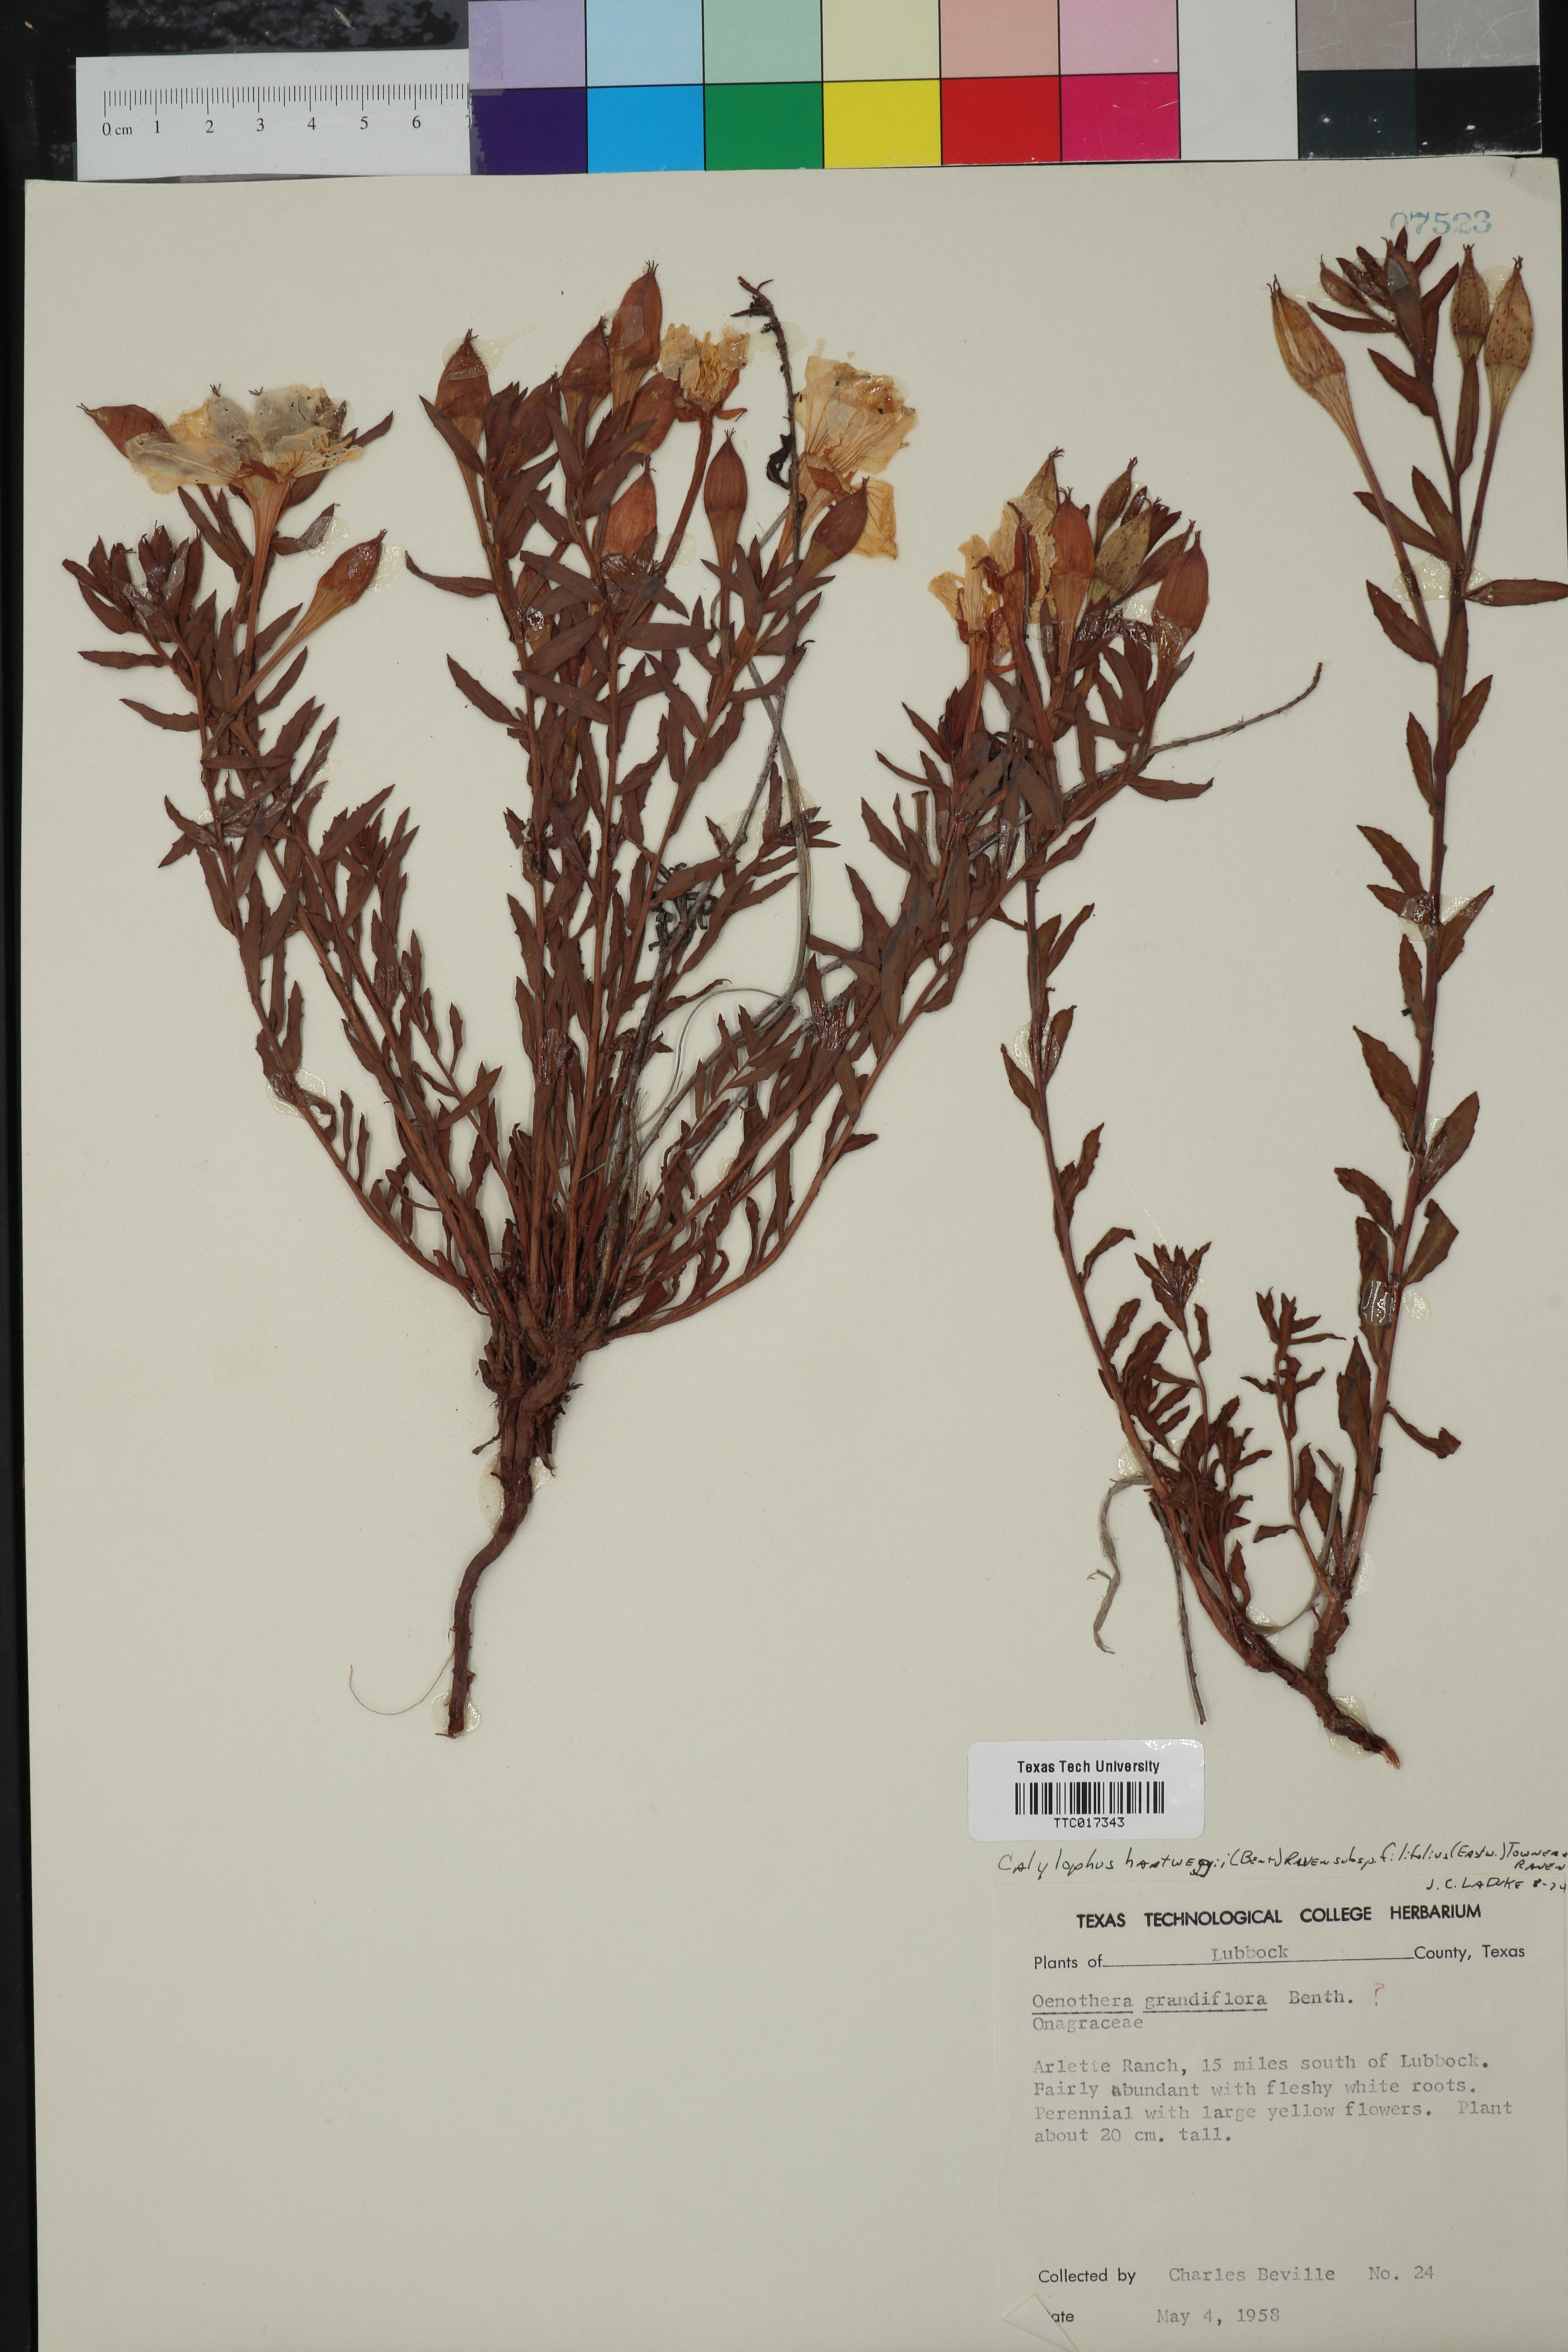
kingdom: Plantae
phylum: Tracheophyta
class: Magnoliopsida
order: Myrtales
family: Onagraceae
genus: Oenothera
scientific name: Oenothera hartwegii
